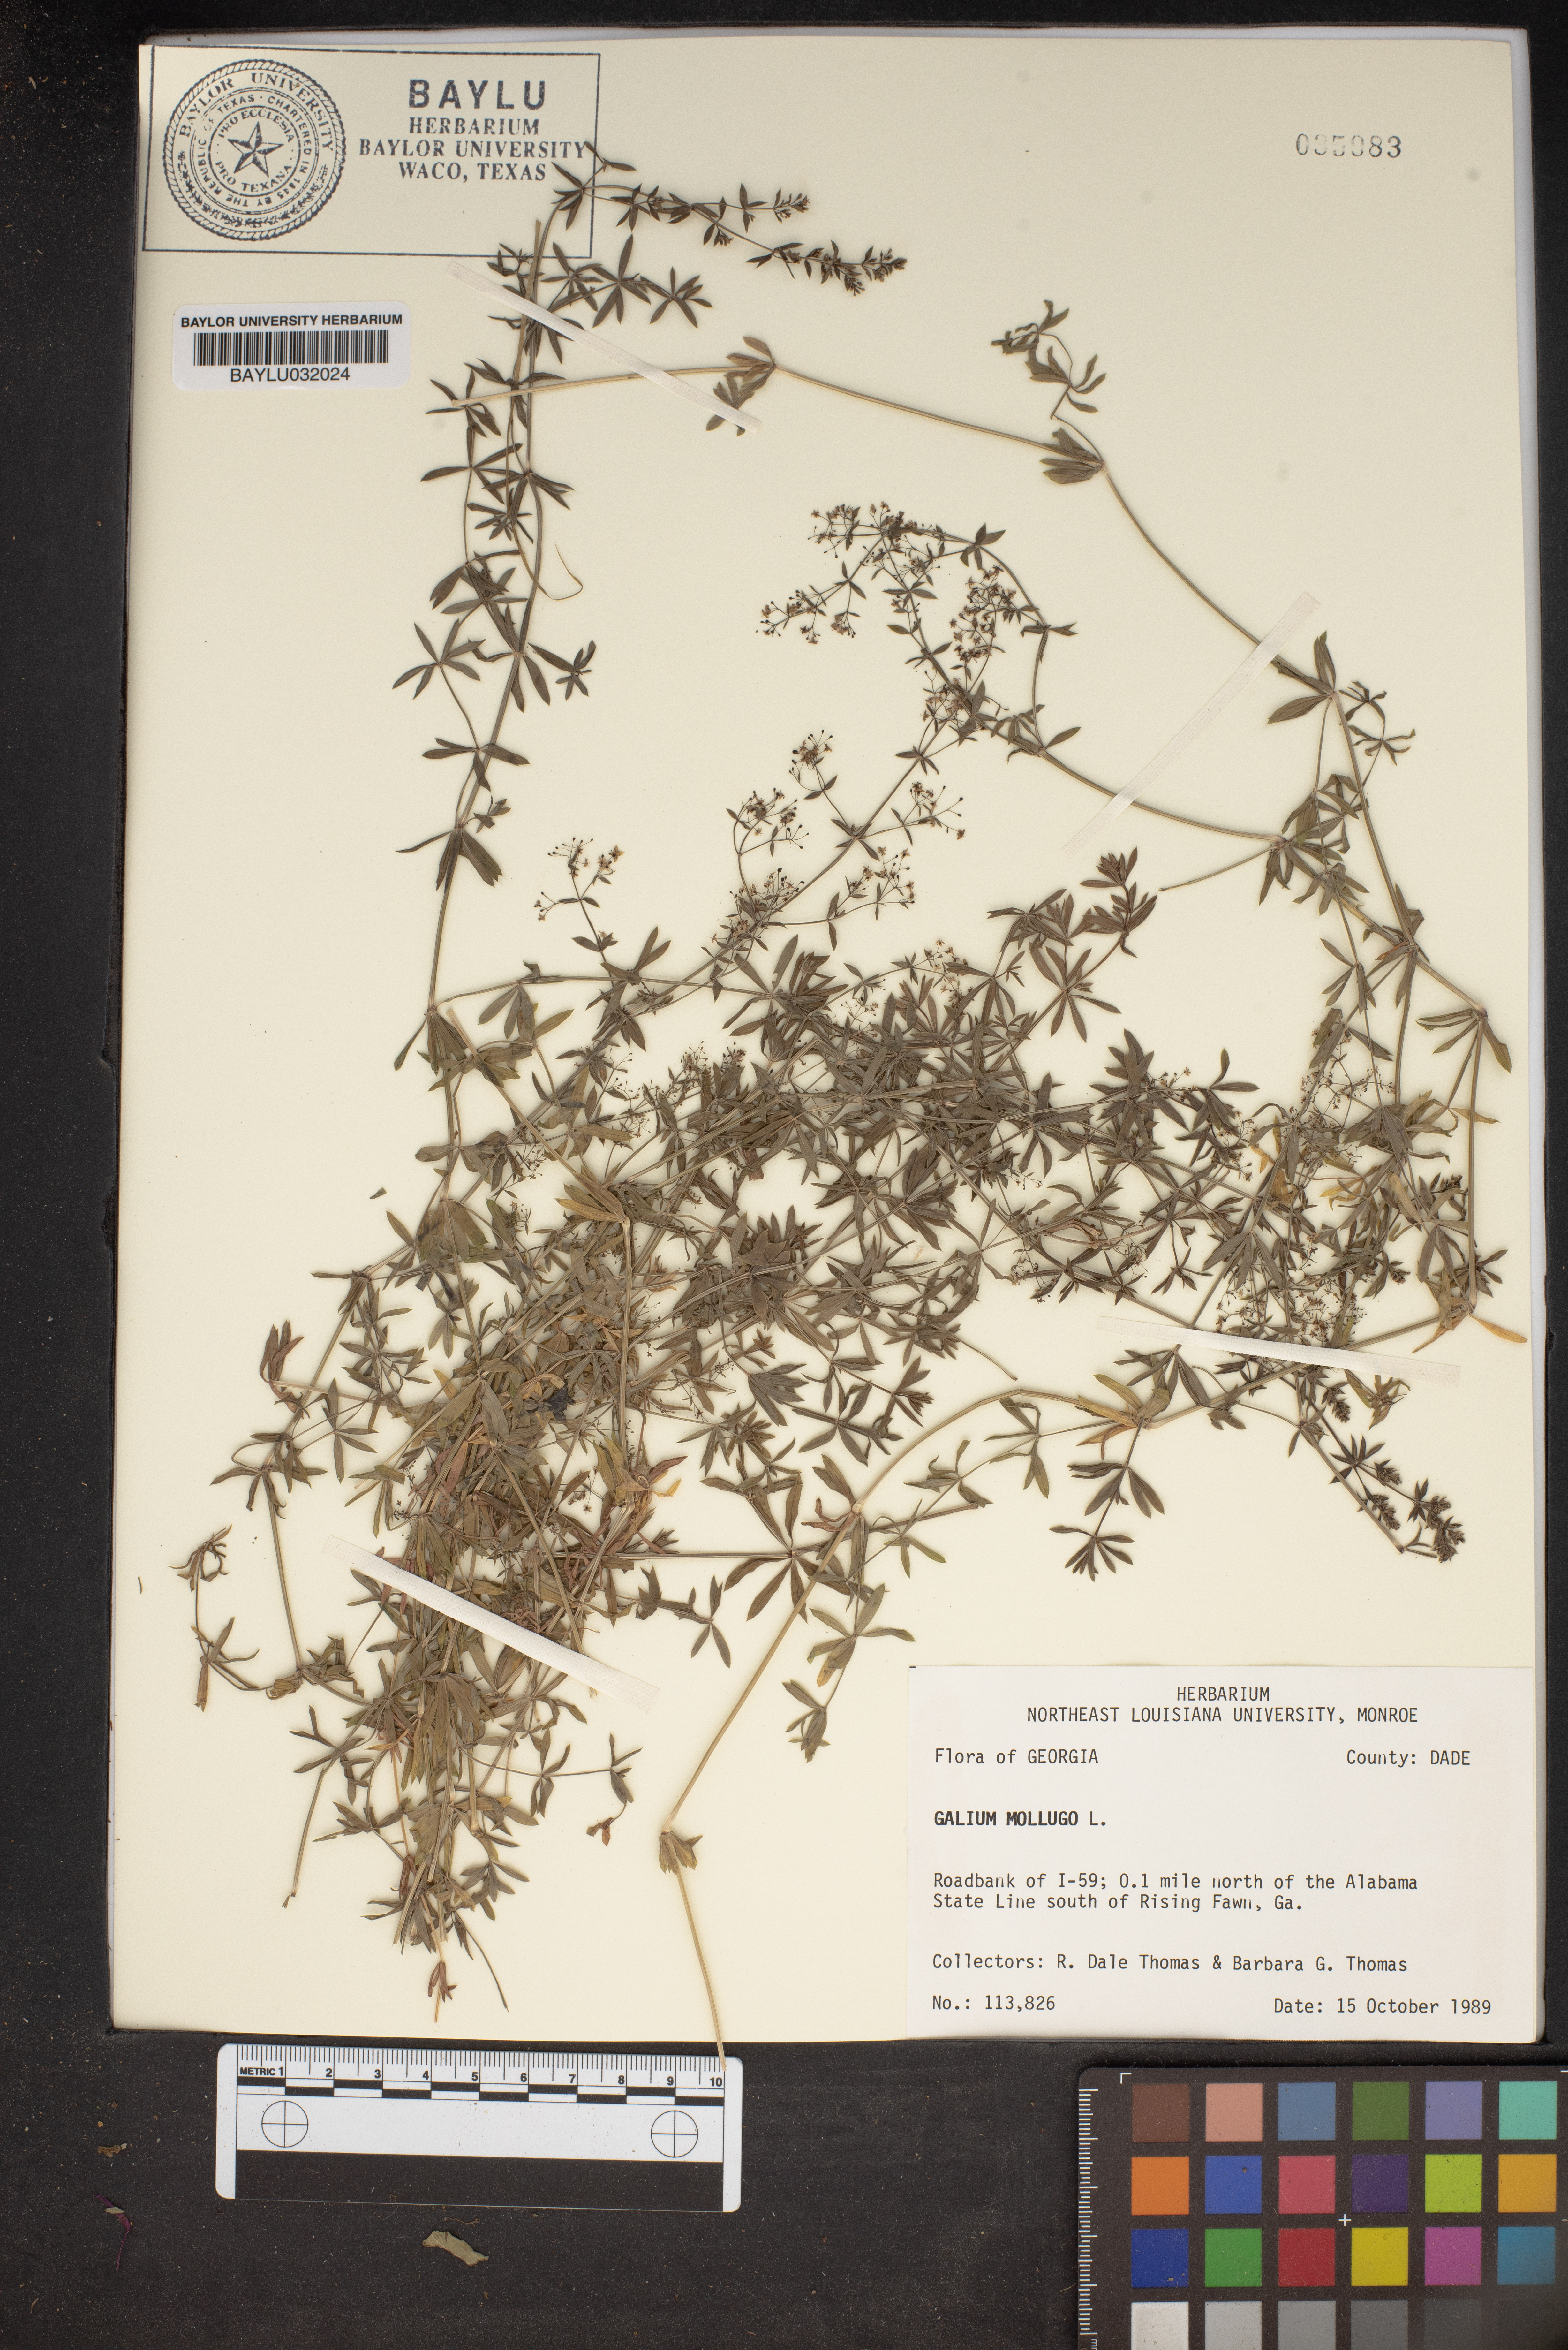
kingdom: Plantae
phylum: Tracheophyta
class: Magnoliopsida
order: Gentianales
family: Rubiaceae
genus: Galium
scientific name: Galium mollugo
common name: Hedge bedstraw
